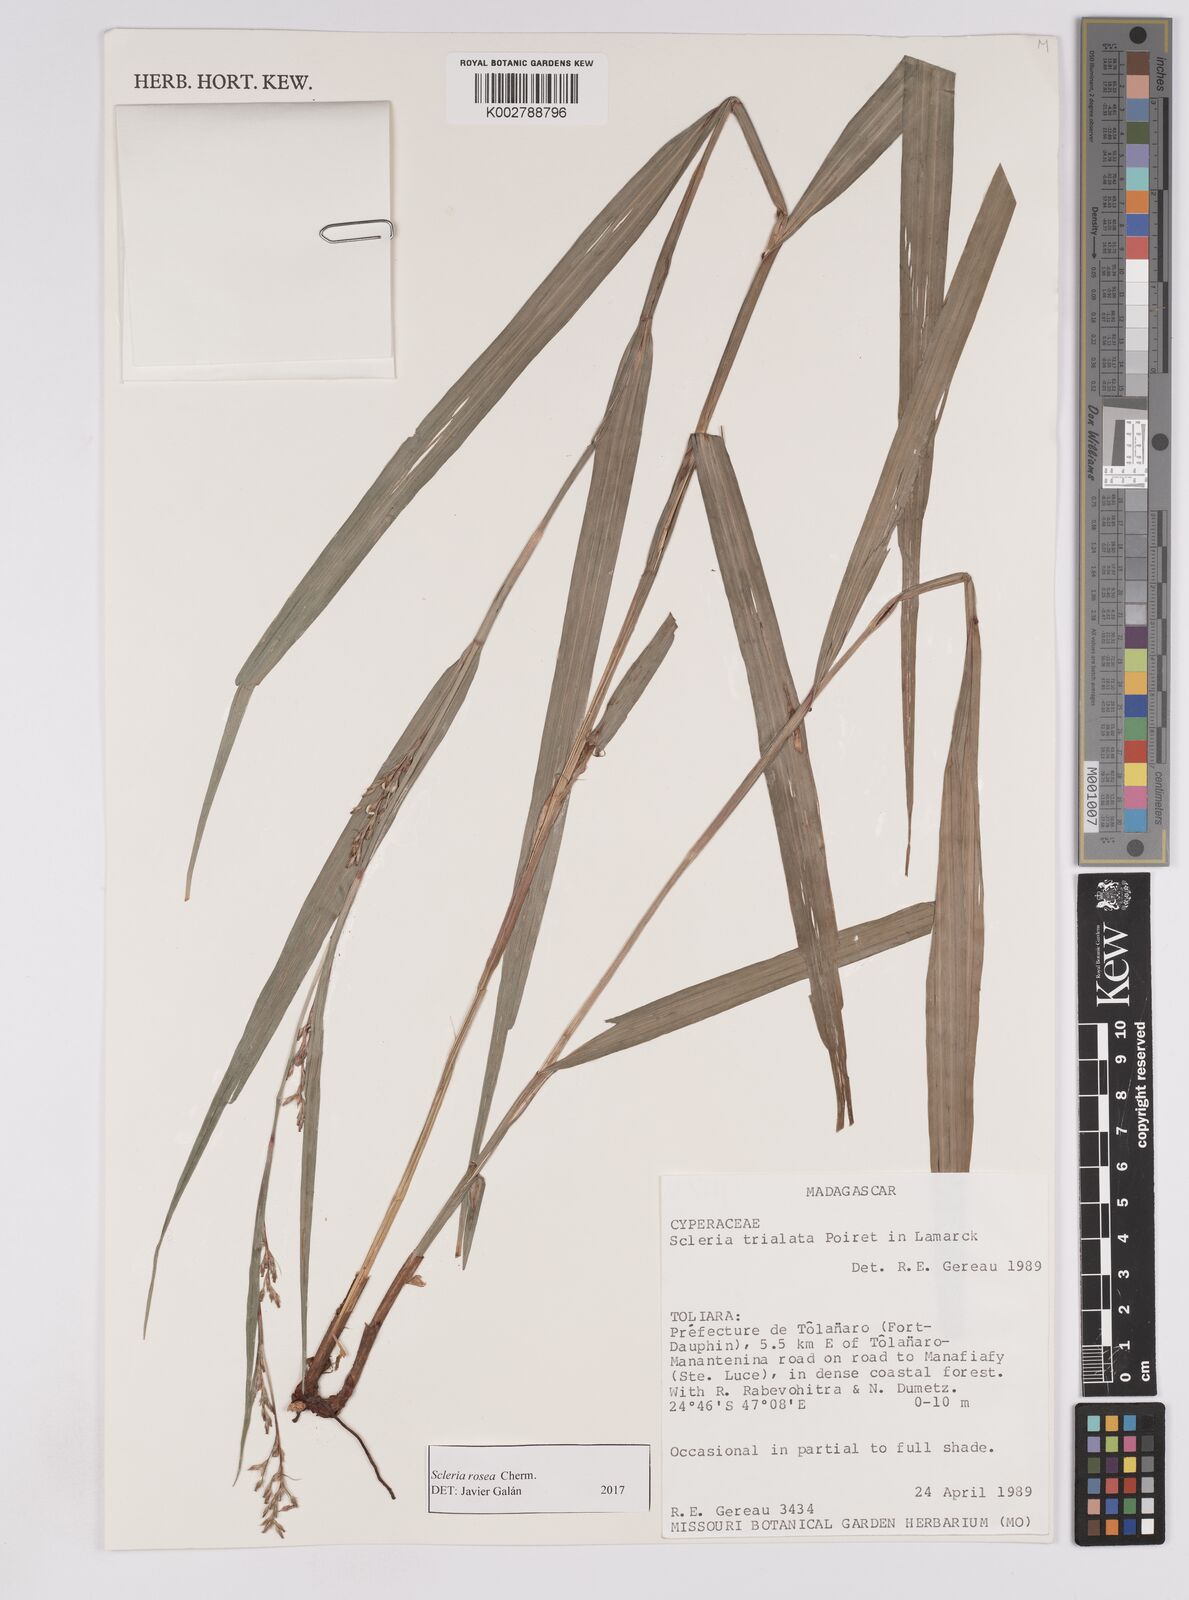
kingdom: Plantae
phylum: Tracheophyta
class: Liliopsida
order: Poales
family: Cyperaceae
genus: Scleria
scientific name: Scleria trialata
